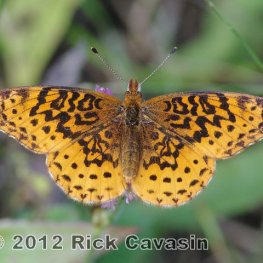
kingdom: Animalia
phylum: Arthropoda
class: Insecta
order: Lepidoptera
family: Nymphalidae
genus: Clossiana
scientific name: Clossiana toddi
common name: Meadow Fritillary
